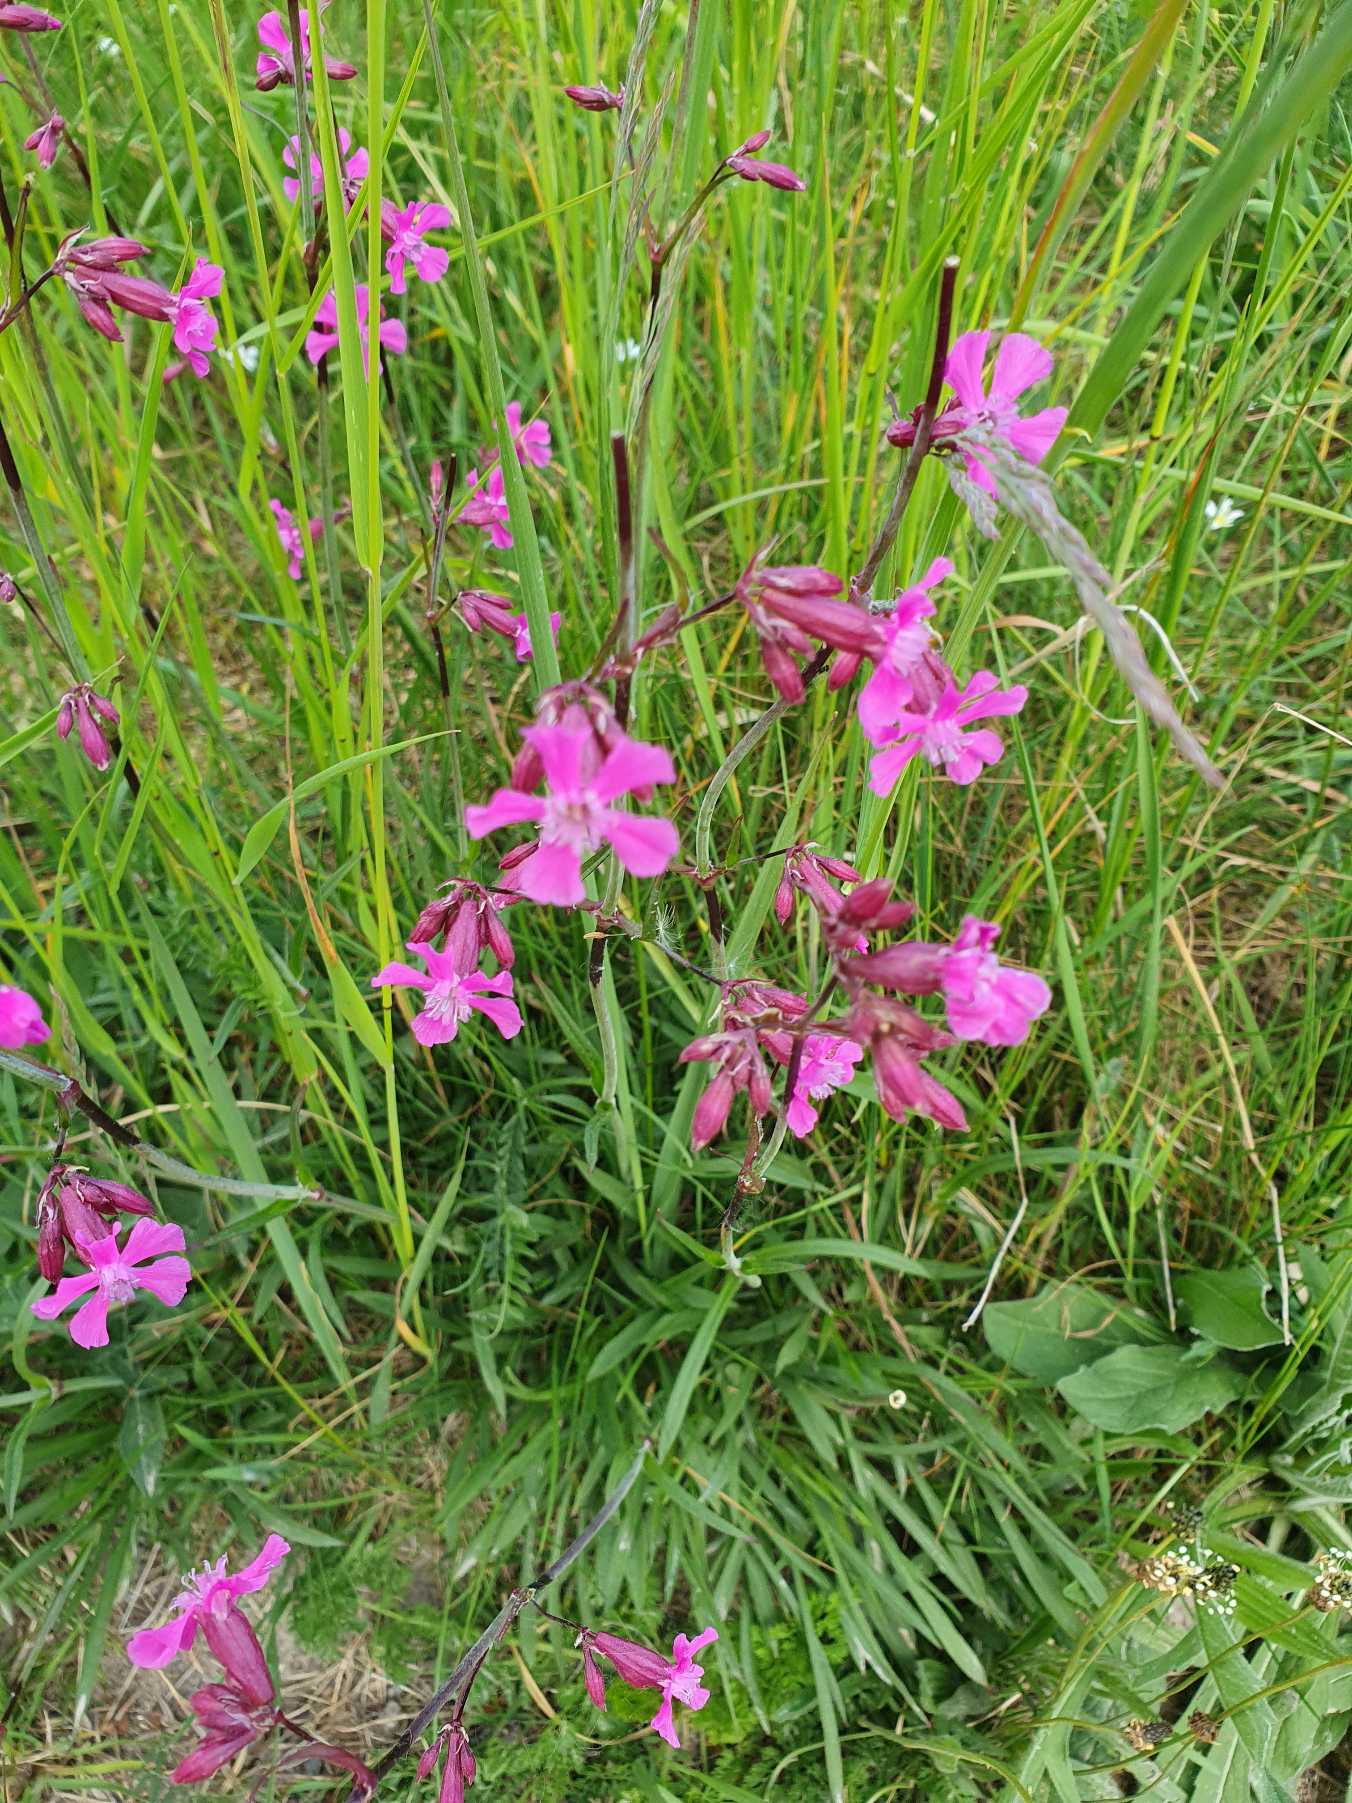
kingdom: Plantae
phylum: Tracheophyta
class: Magnoliopsida
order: Caryophyllales
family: Caryophyllaceae
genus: Viscaria
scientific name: Viscaria vulgaris
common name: Tjærenellike
